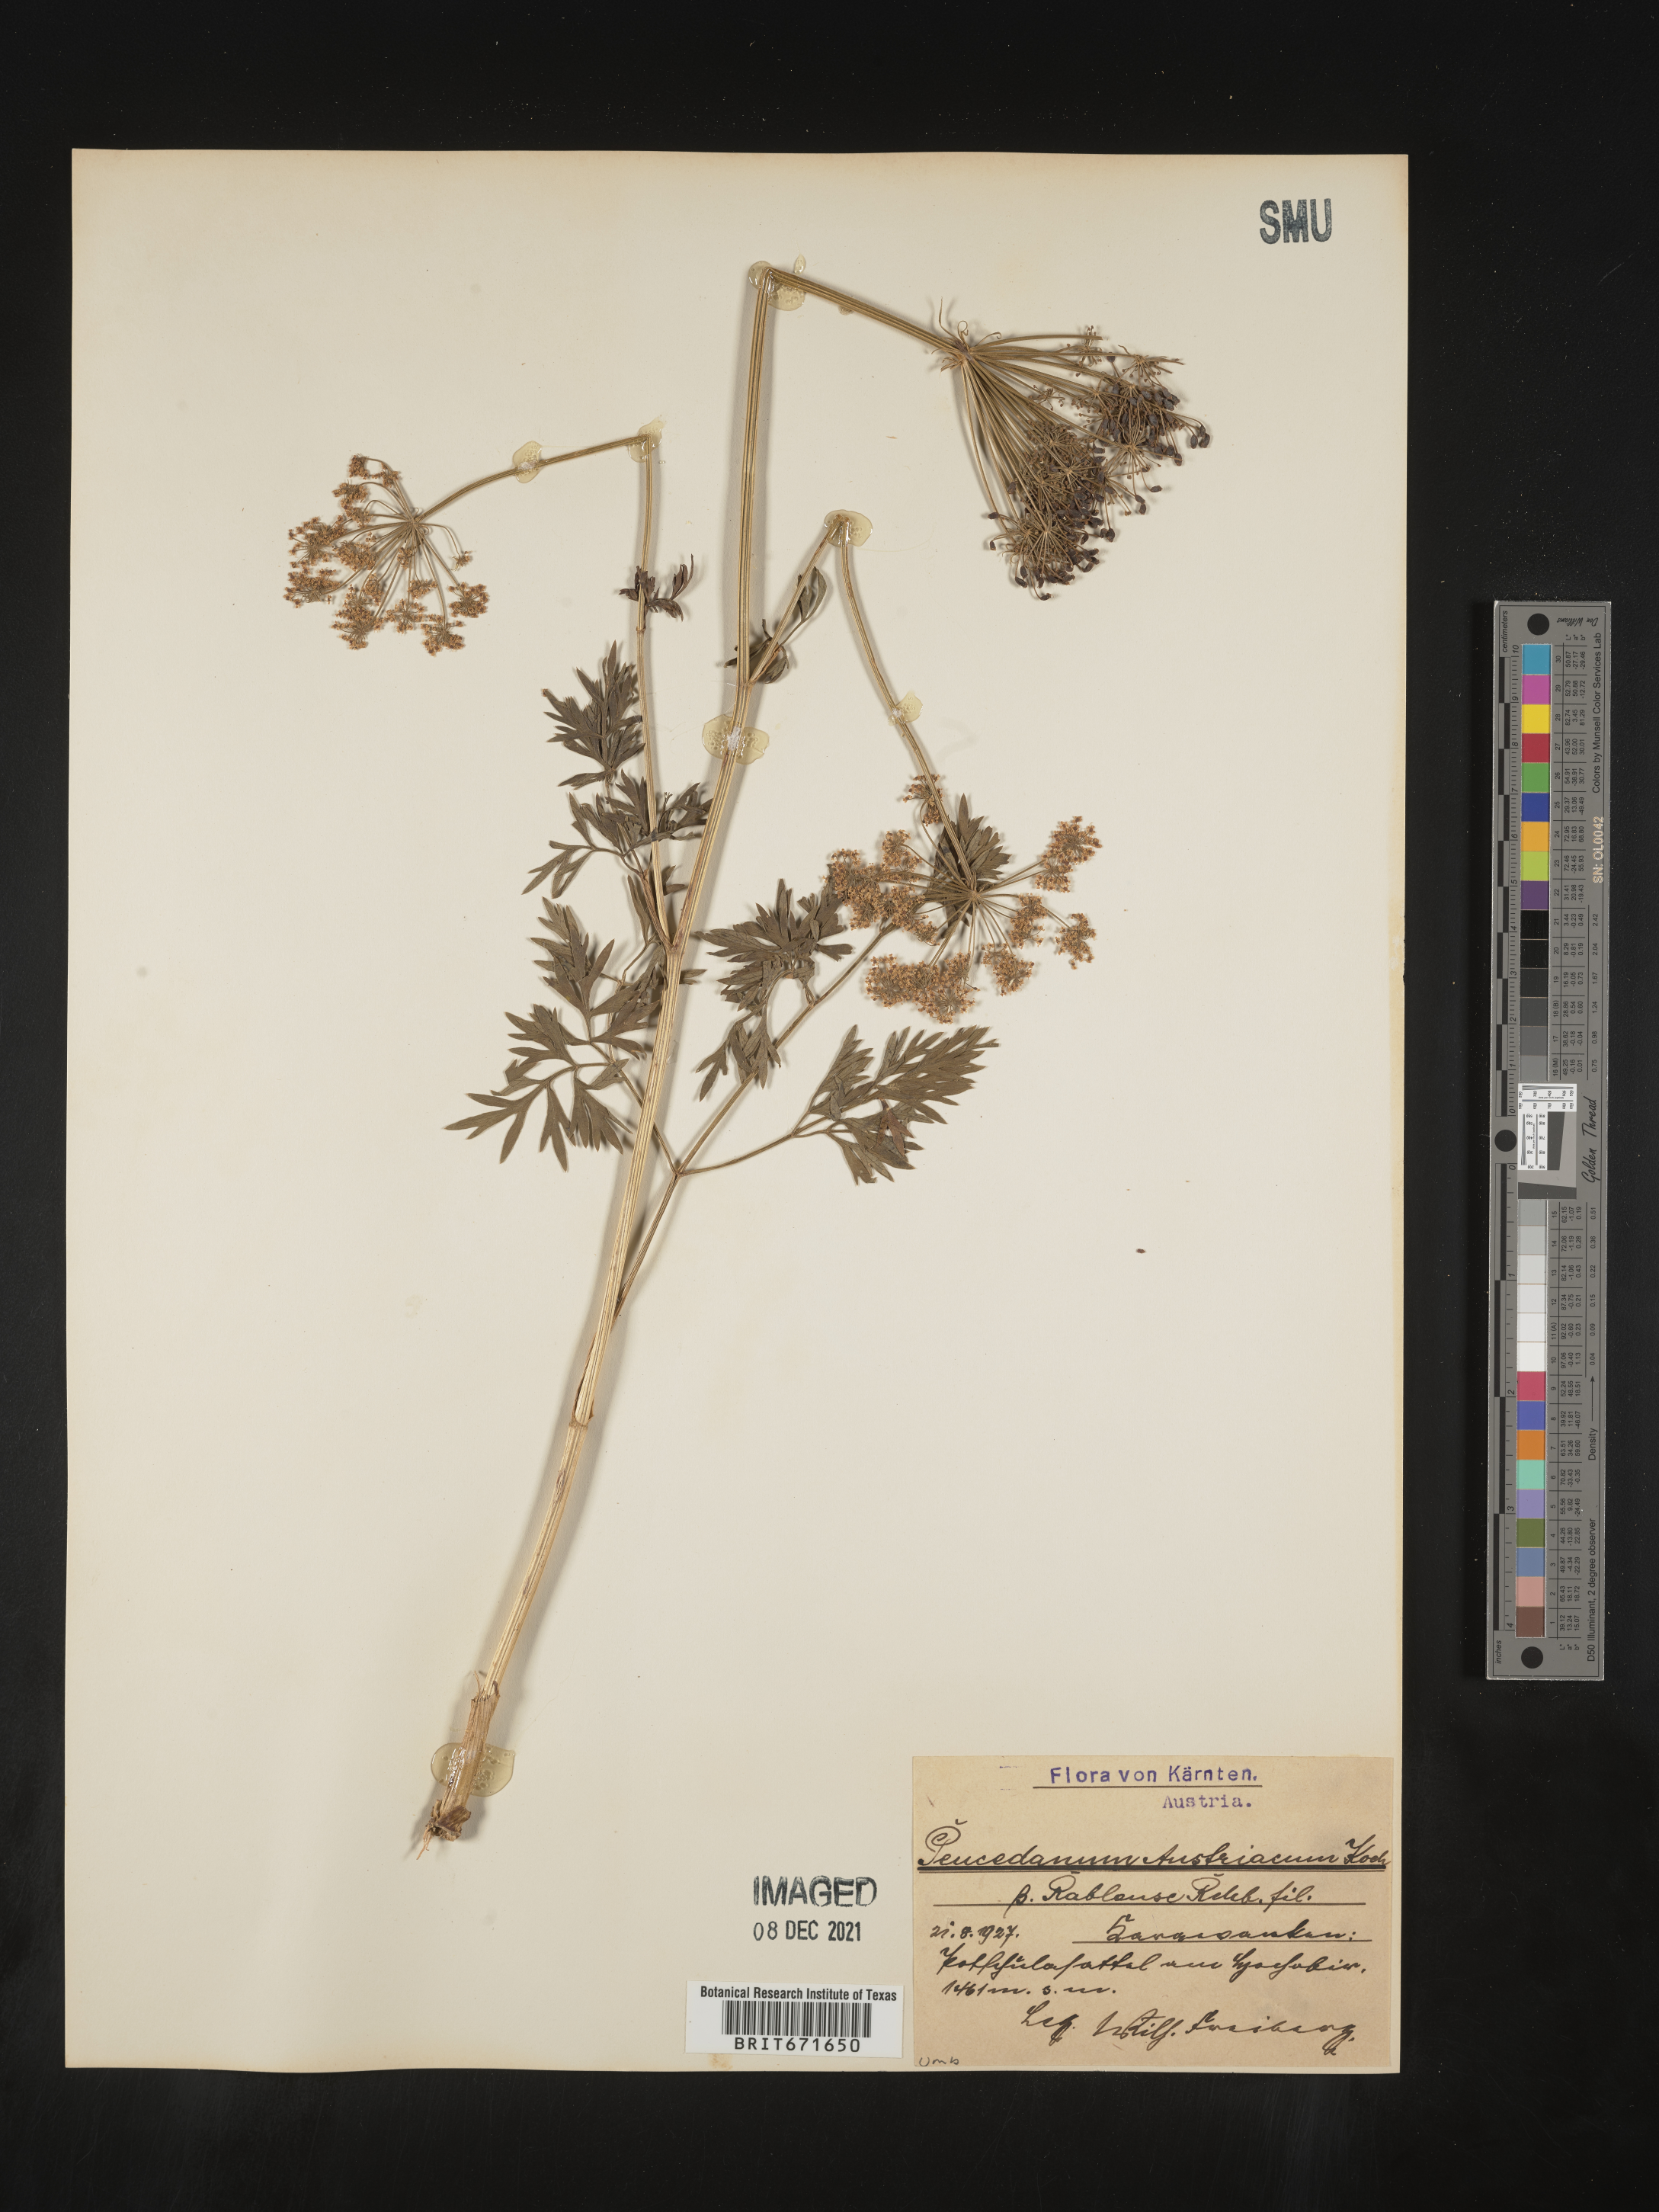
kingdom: Plantae
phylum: Tracheophyta
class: Magnoliopsida
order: Apiales
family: Apiaceae
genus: Peucedanum
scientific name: Peucedanum
